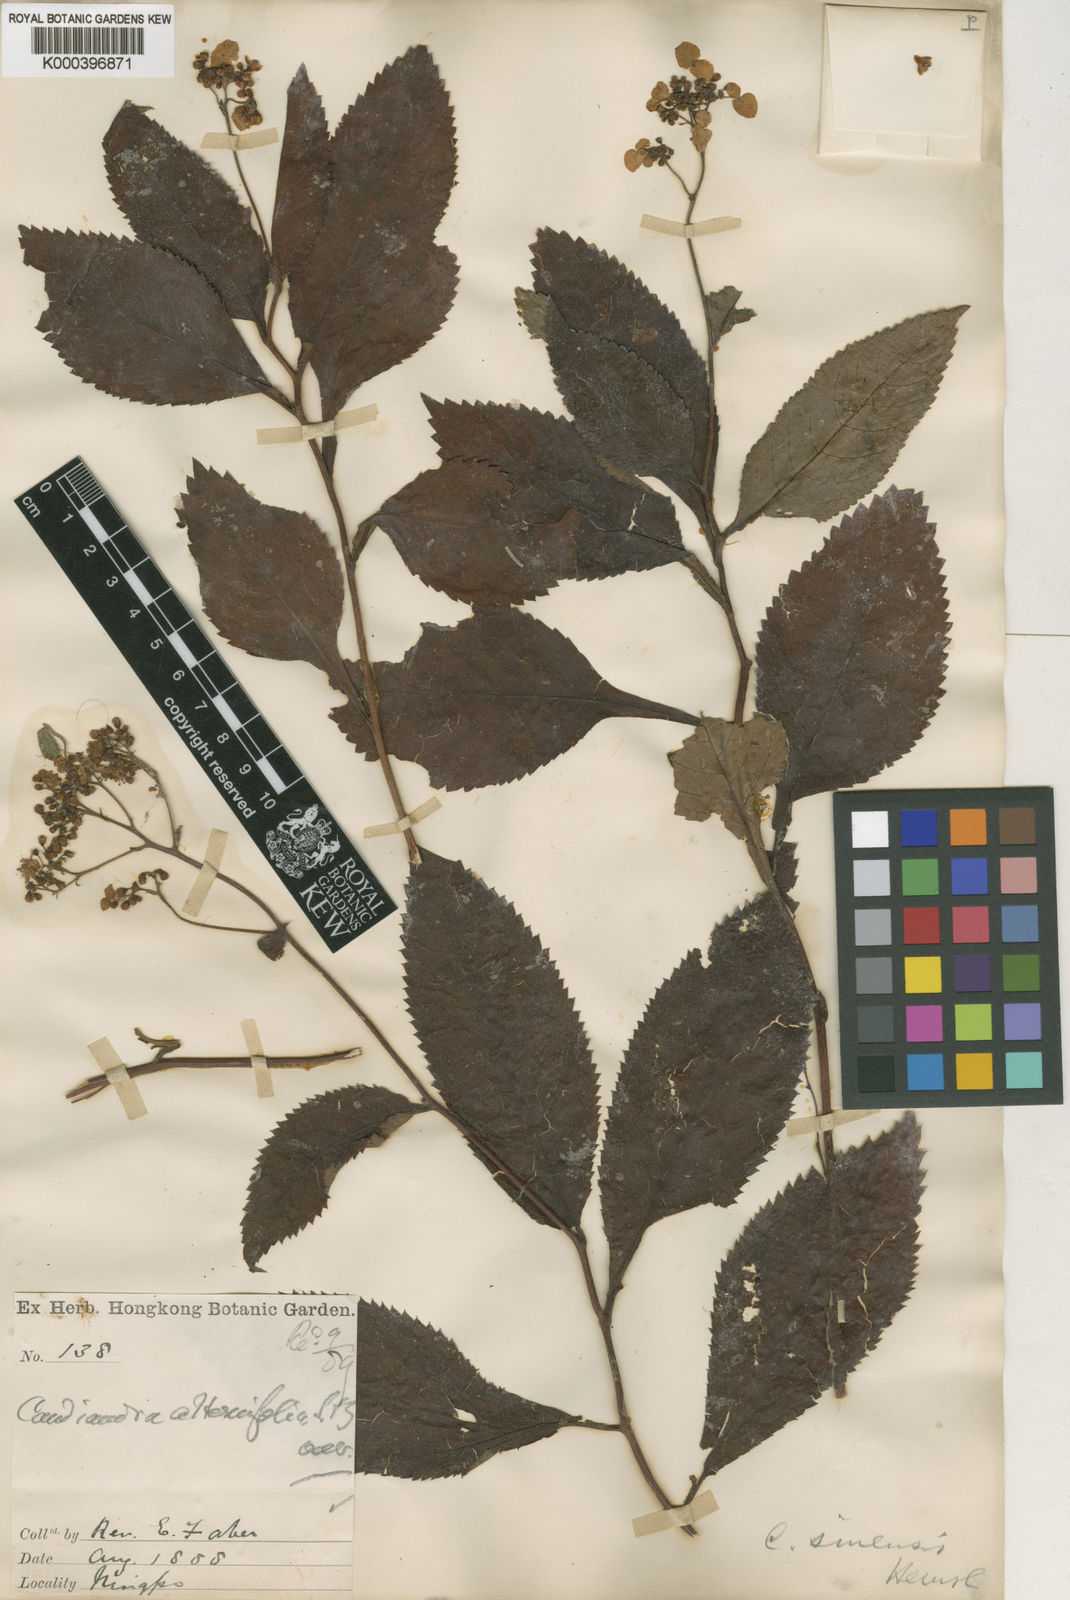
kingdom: Plantae
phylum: Tracheophyta
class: Magnoliopsida
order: Cornales
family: Hydrangeaceae
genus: Hydrangea
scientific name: Hydrangea moellendorffii
